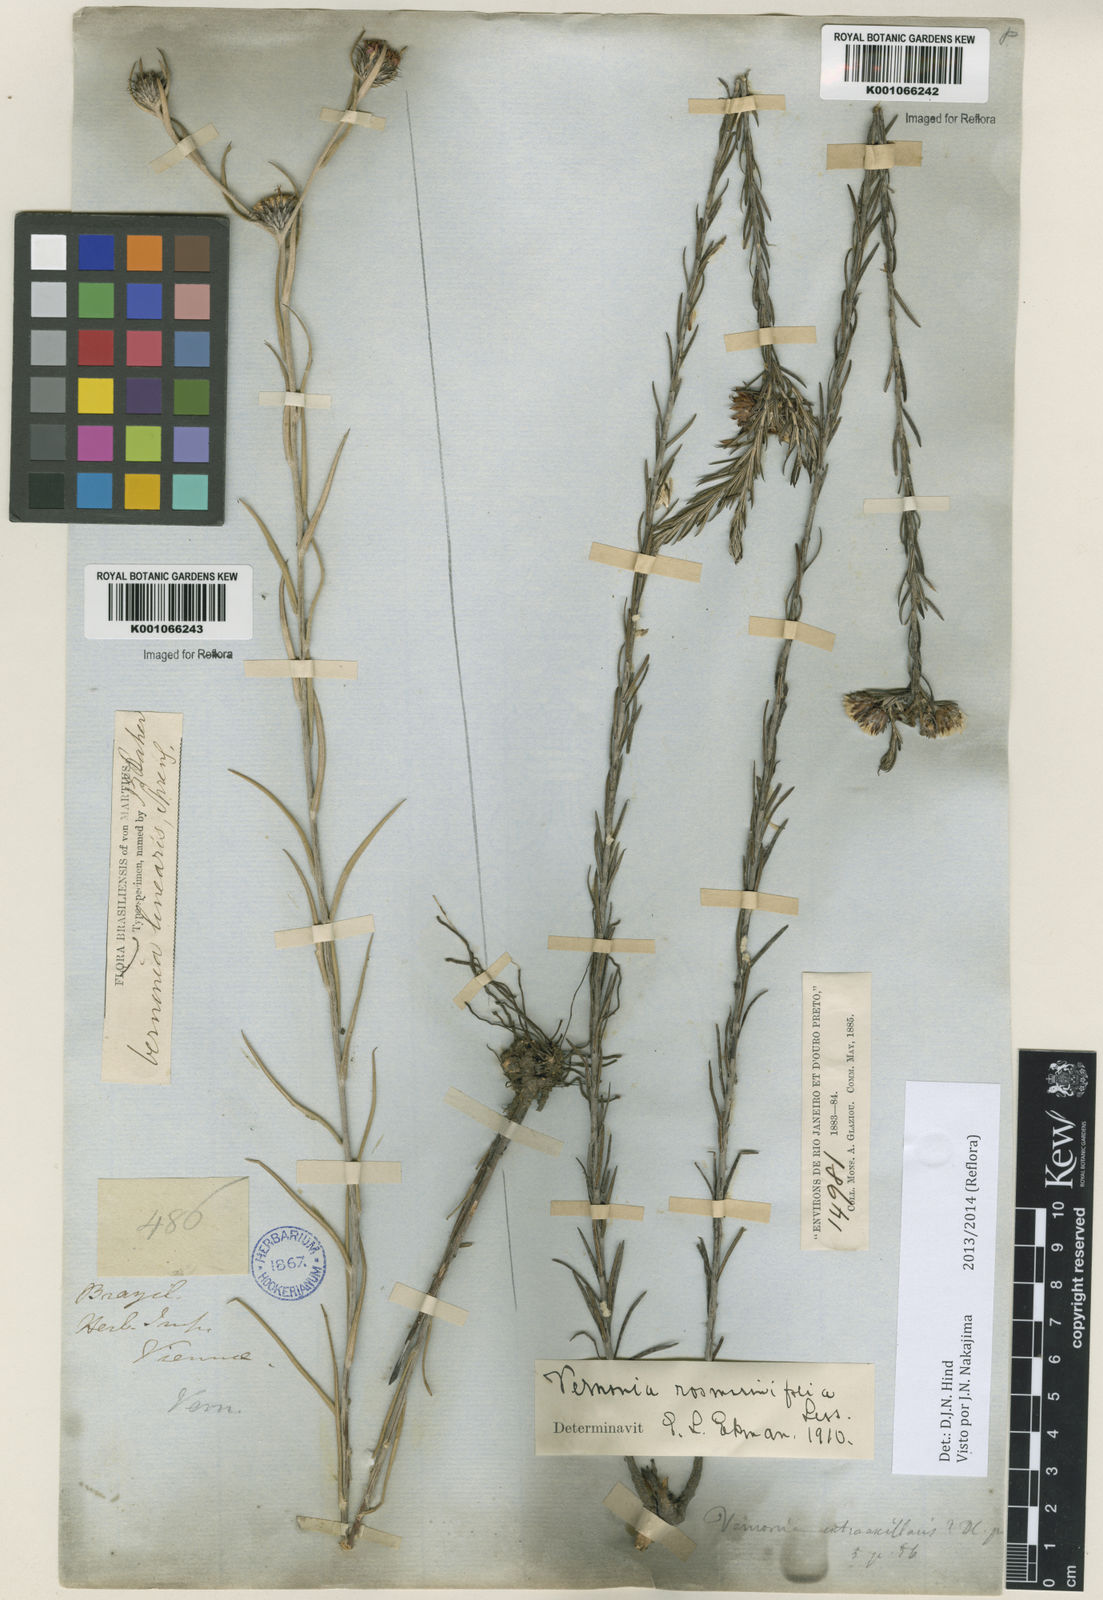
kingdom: Plantae
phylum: Tracheophyta
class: Magnoliopsida
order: Asterales
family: Asteraceae
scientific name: Asteraceae
